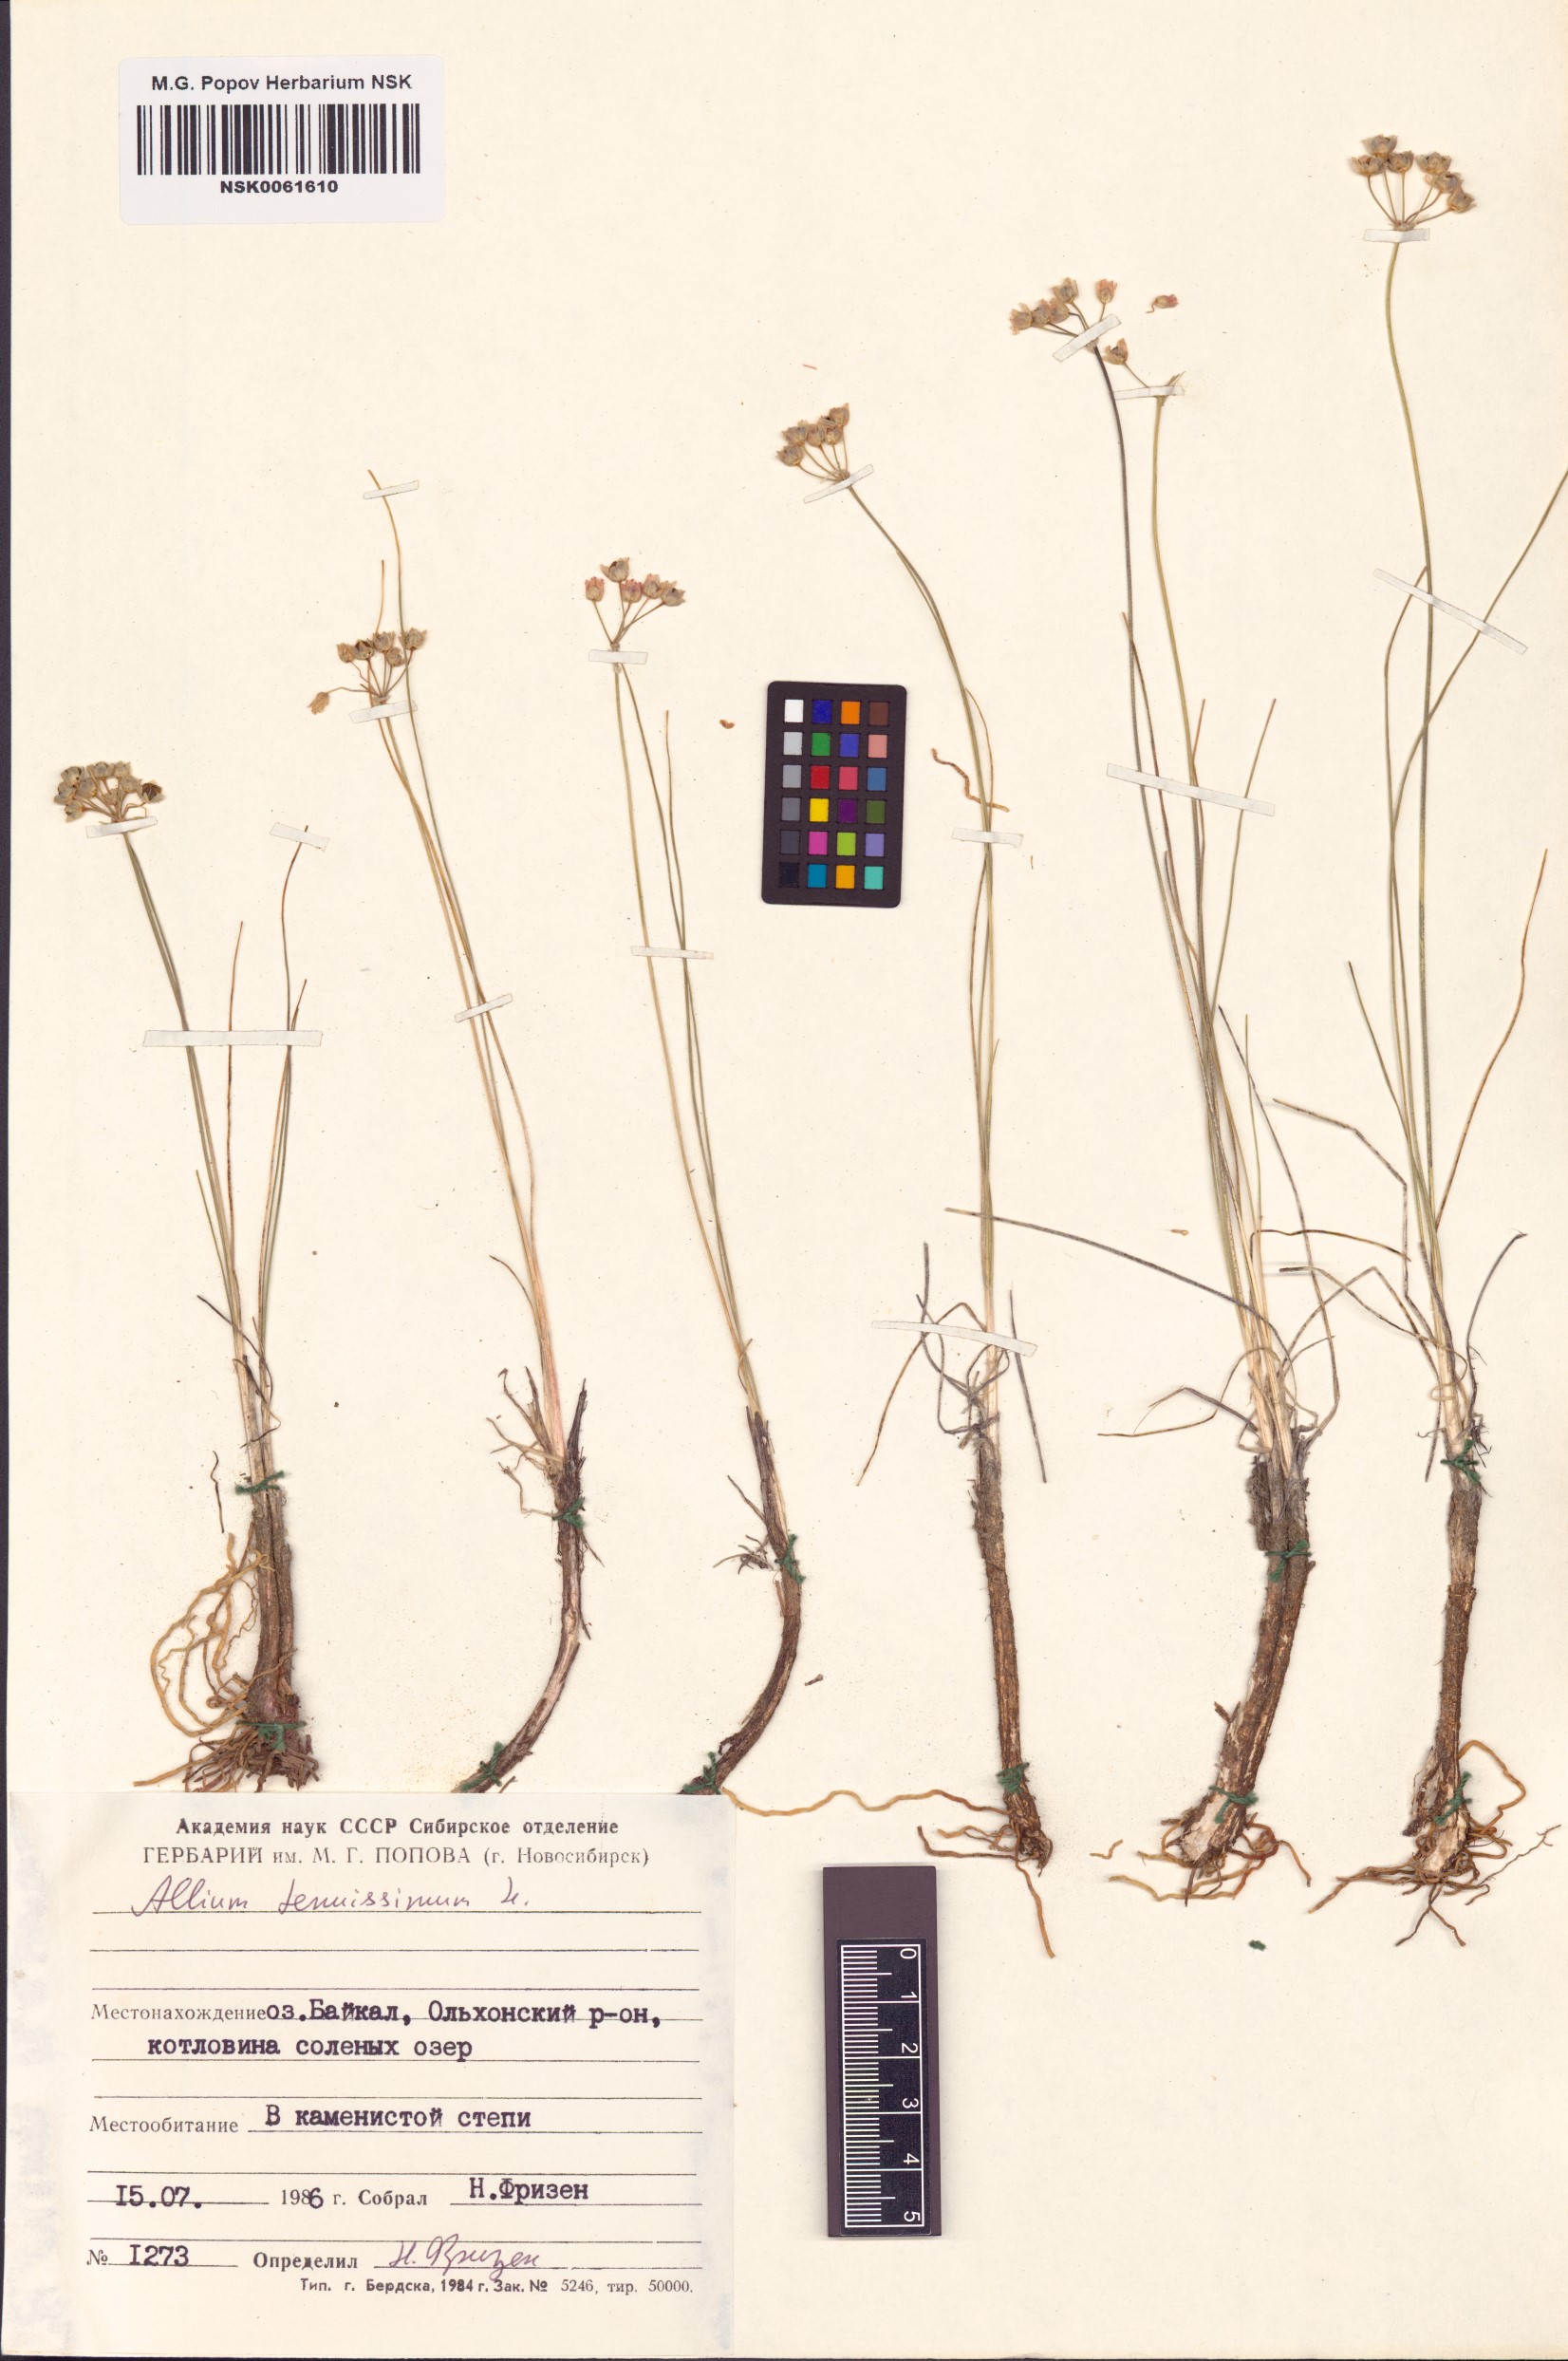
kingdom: Plantae
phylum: Tracheophyta
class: Liliopsida
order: Asparagales
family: Amaryllidaceae
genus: Allium
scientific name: Allium tenuissimum
